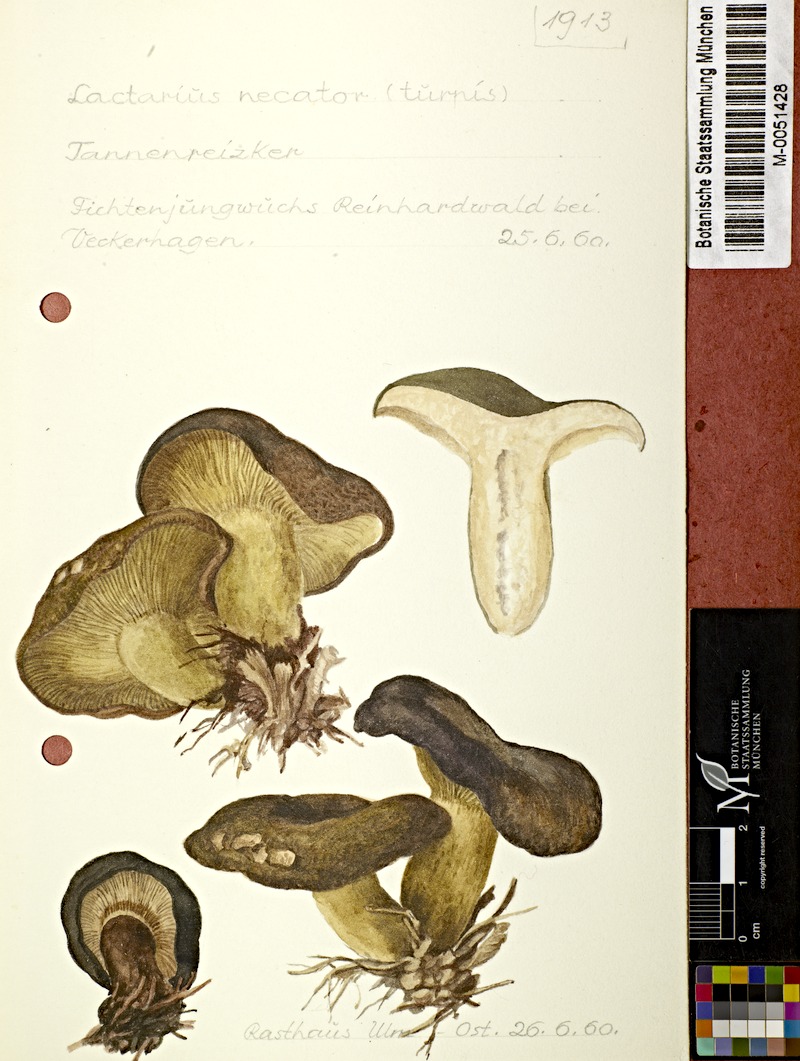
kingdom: Fungi
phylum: Basidiomycota
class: Agaricomycetes
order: Russulales
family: Russulaceae
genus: Lactarius
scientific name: Lactarius plumbeus
